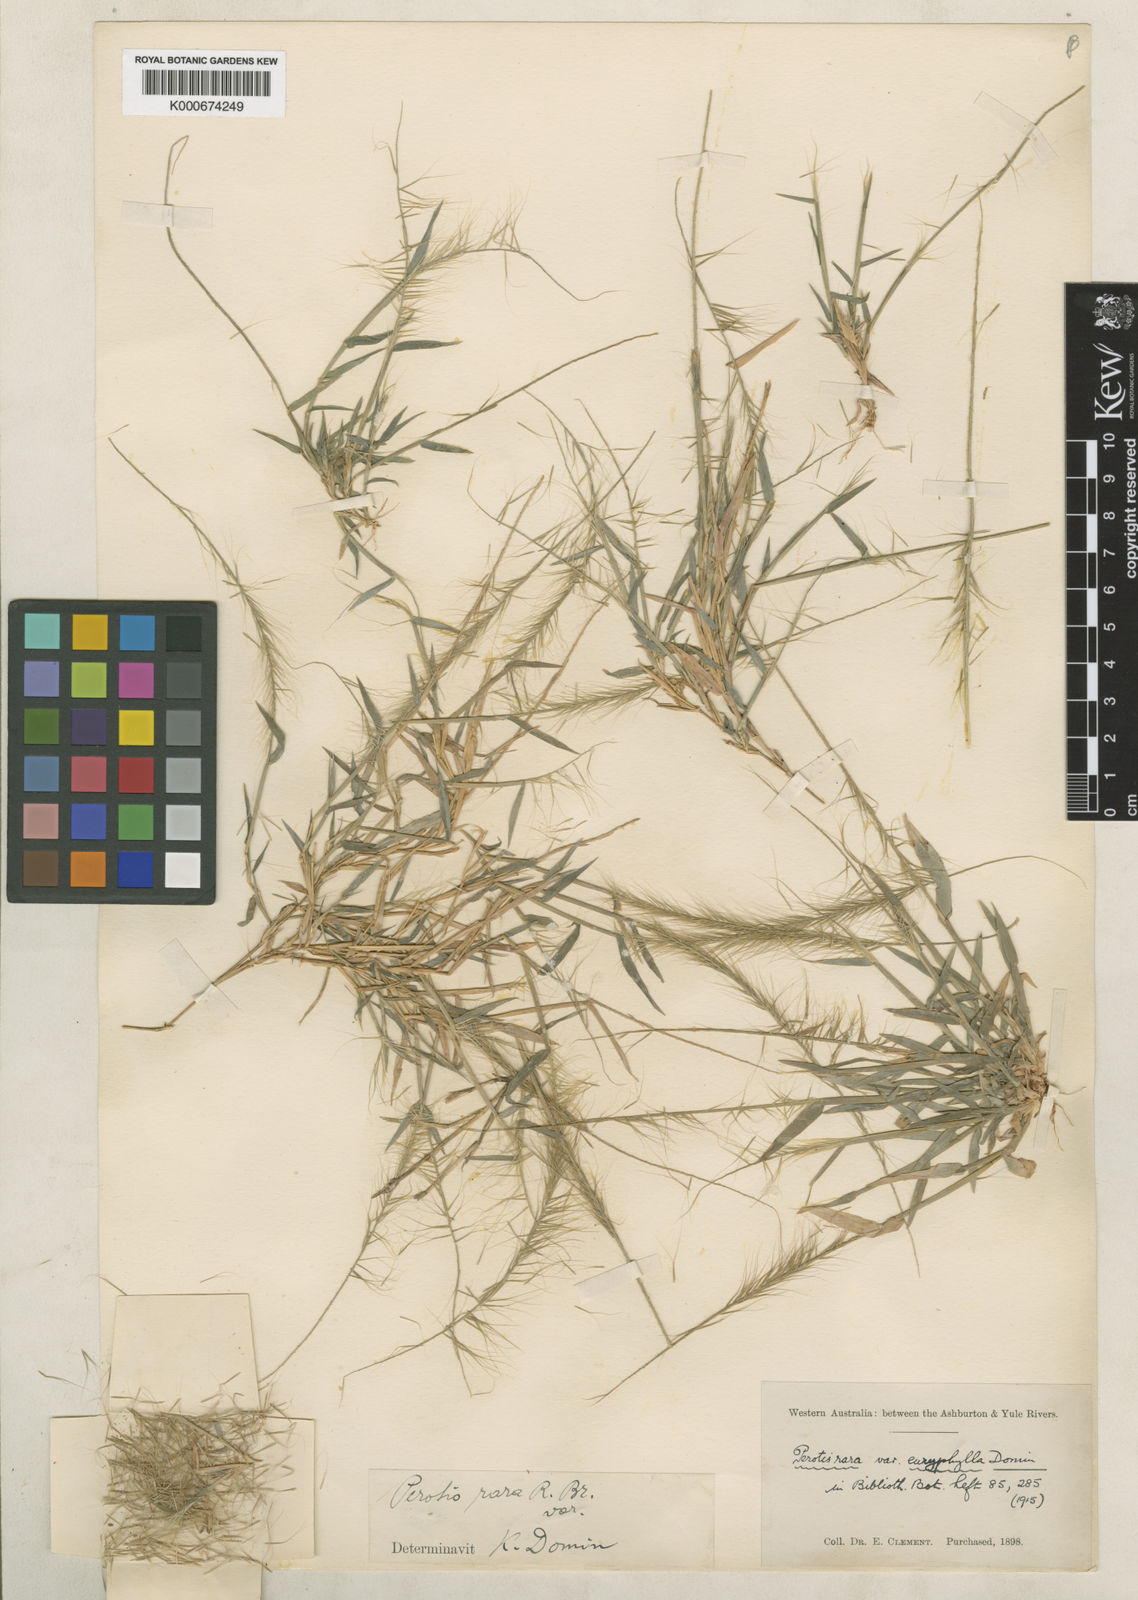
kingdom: Plantae
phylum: Tracheophyta
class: Liliopsida
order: Poales
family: Poaceae
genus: Perotis
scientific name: Perotis rara
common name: Comet grass
